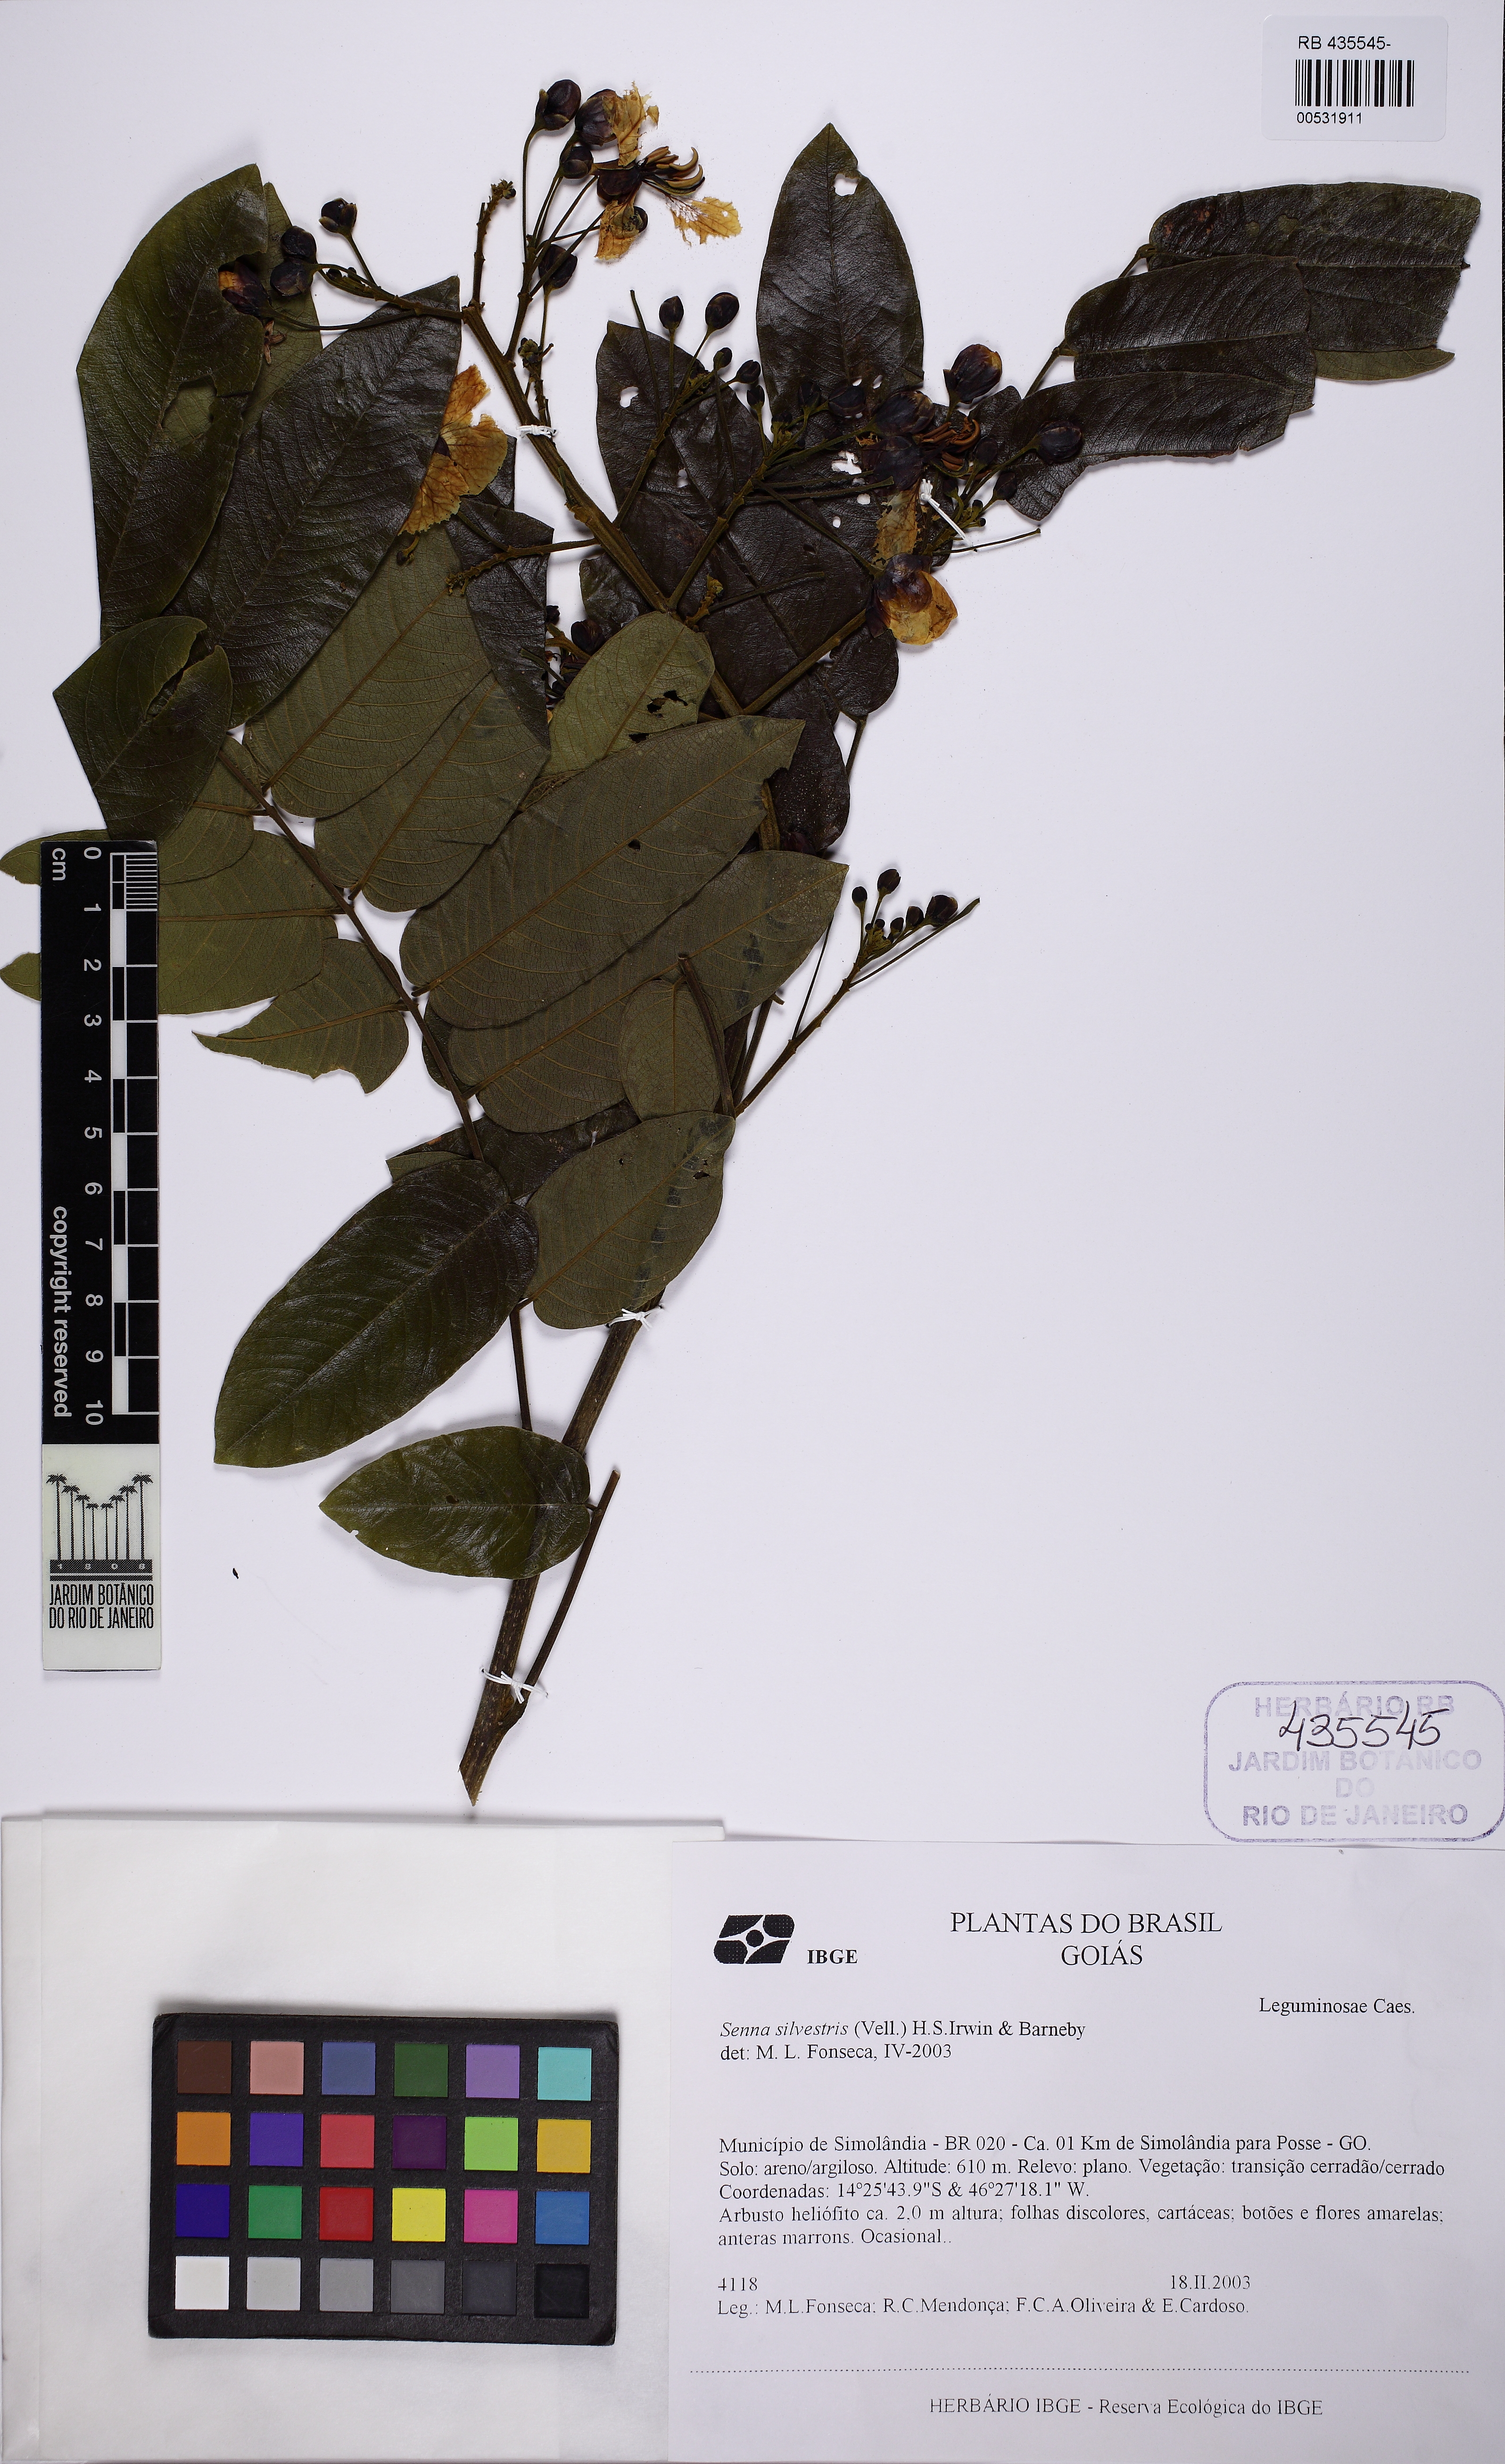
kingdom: Plantae
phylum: Tracheophyta
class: Magnoliopsida
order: Fabales
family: Fabaceae
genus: Senna
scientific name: Senna silvestris
